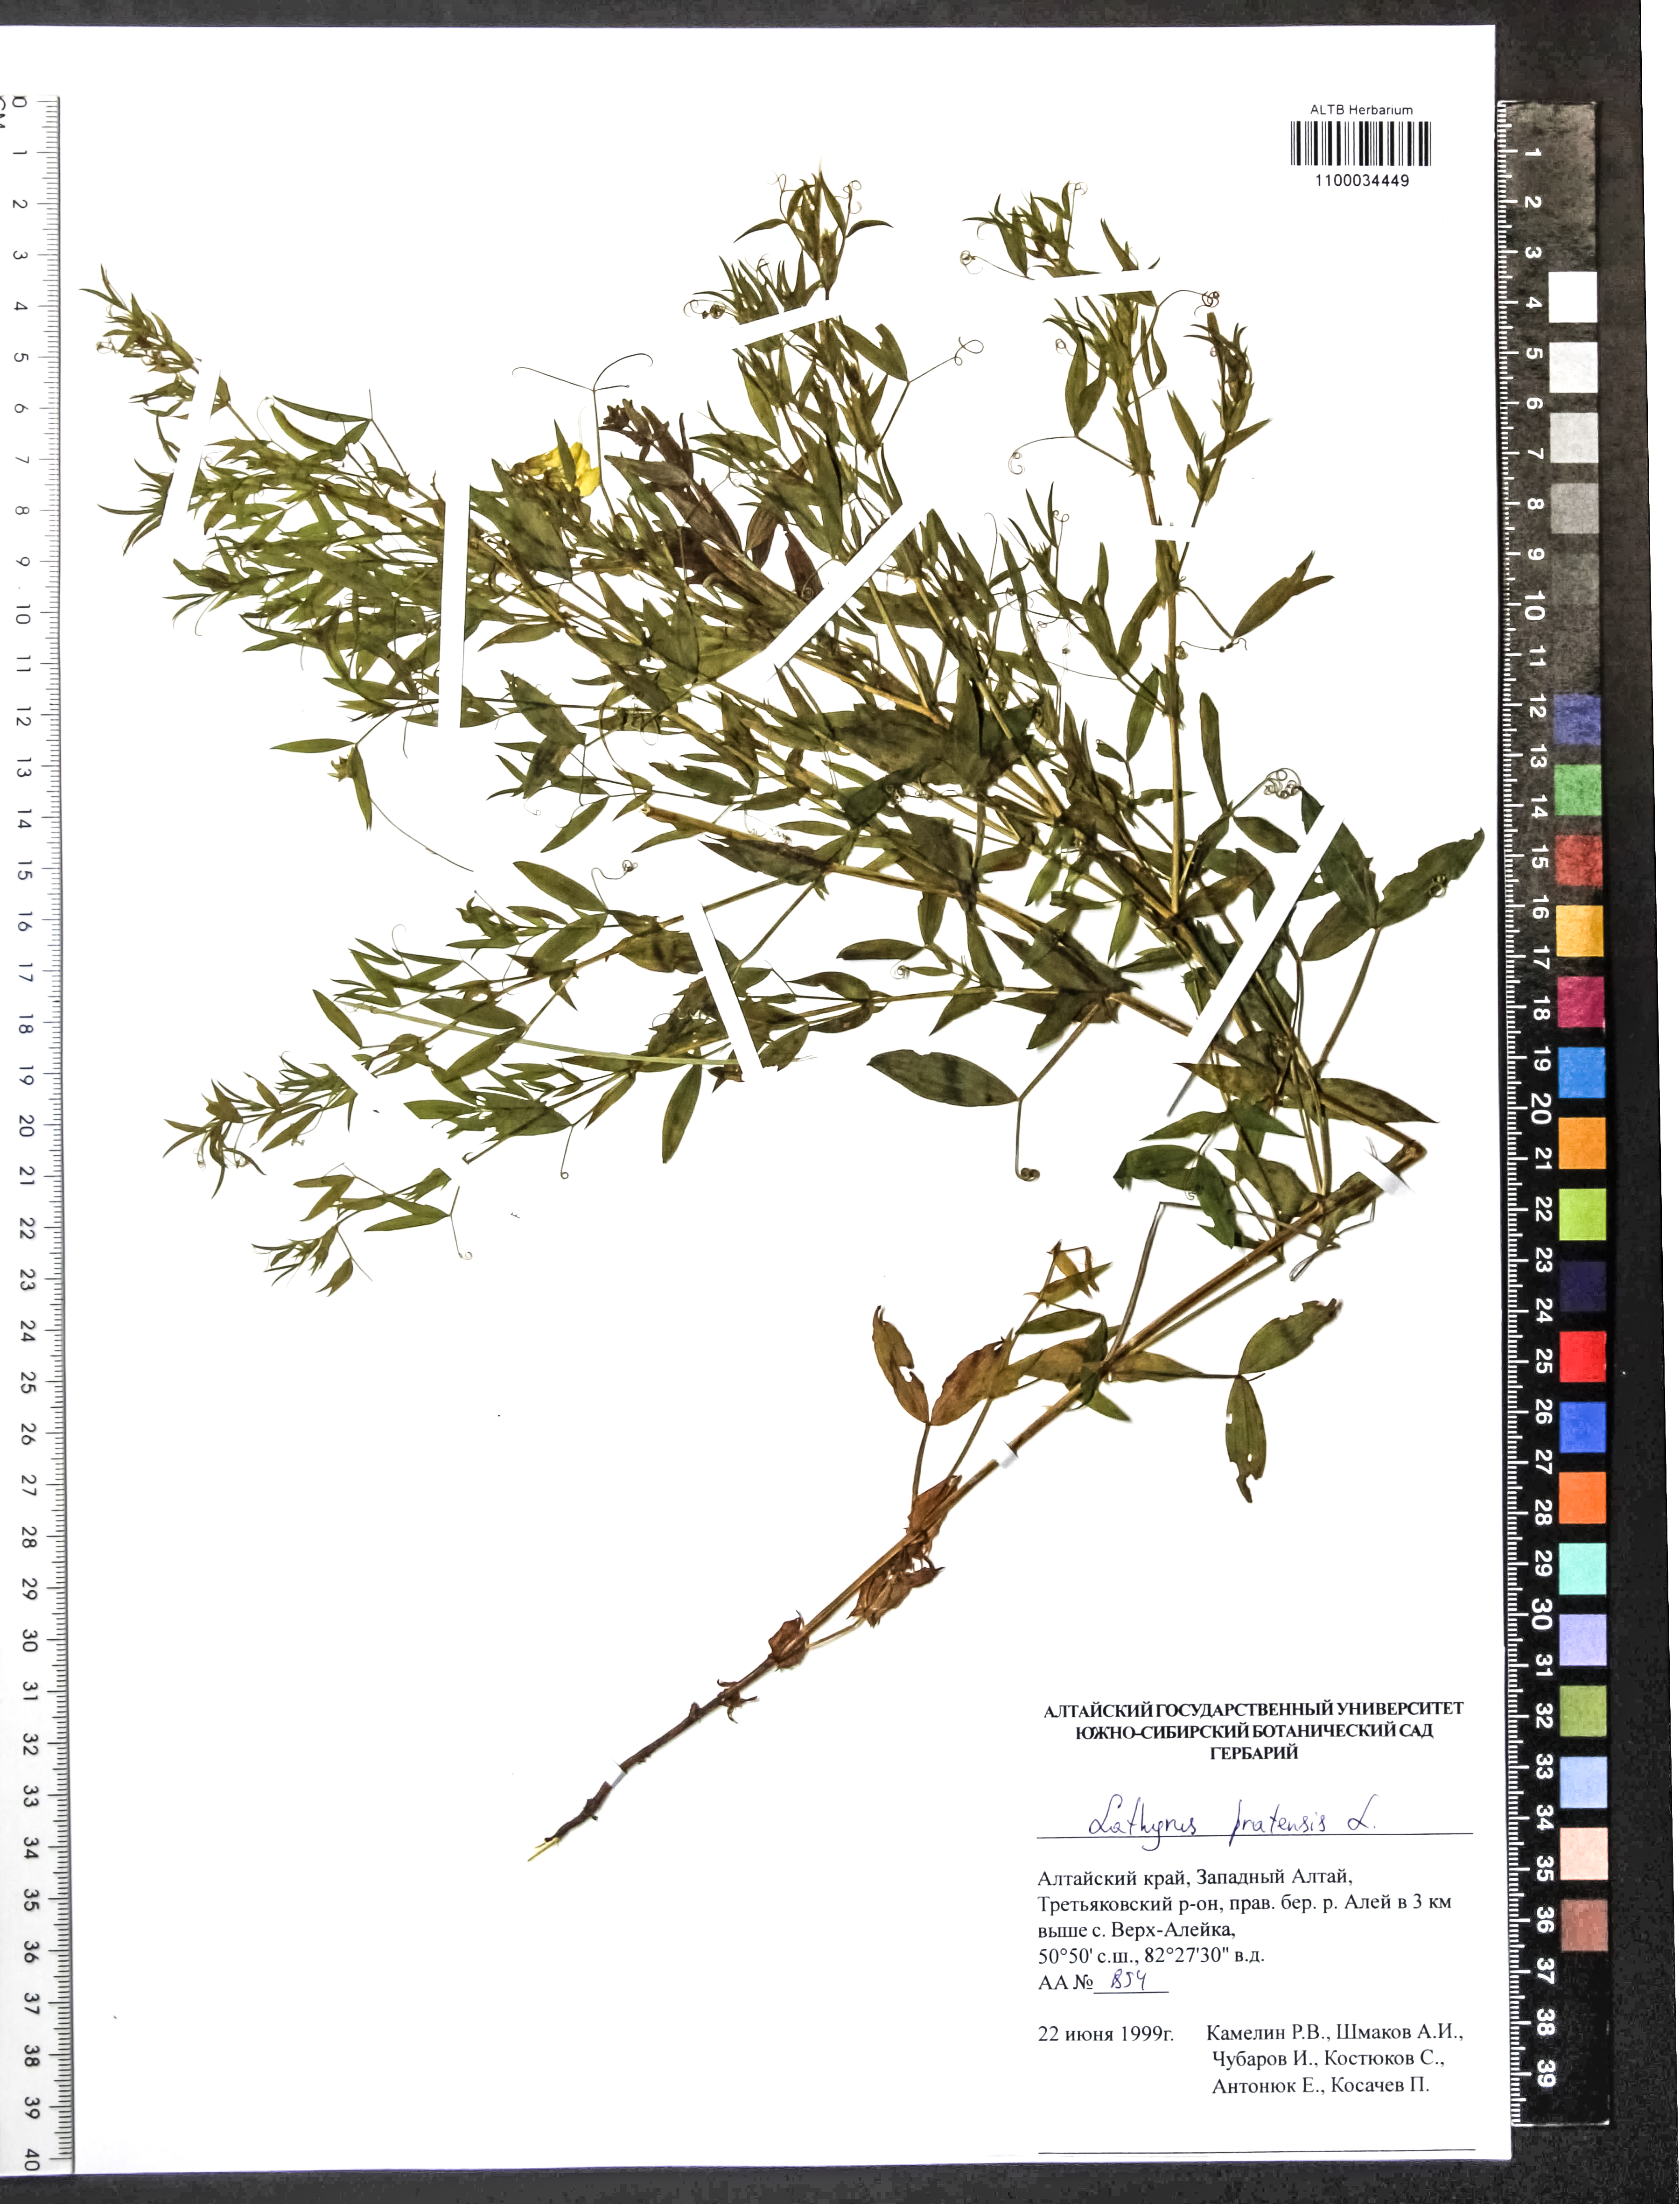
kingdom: Plantae
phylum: Tracheophyta
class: Magnoliopsida
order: Fabales
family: Fabaceae
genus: Lathyrus
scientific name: Lathyrus pratensis
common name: Meadow vetchling
